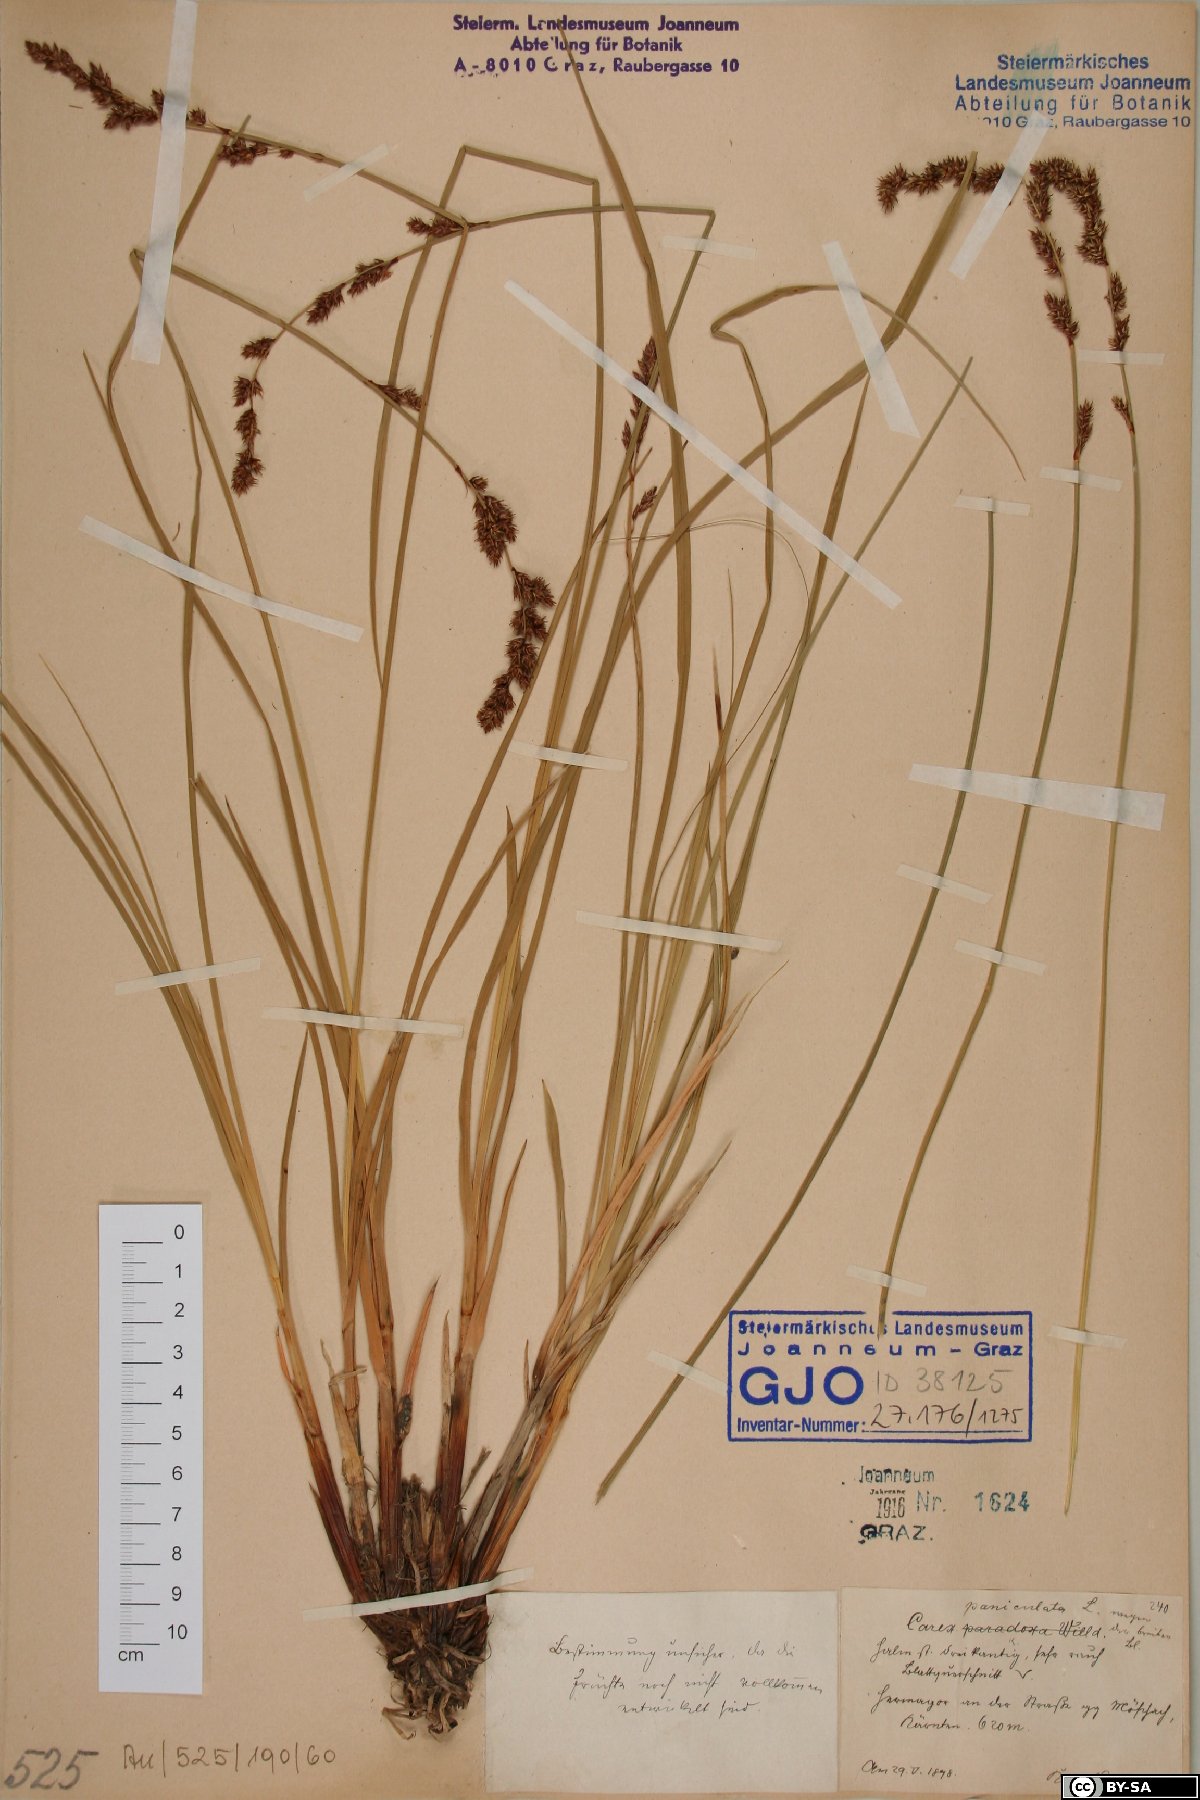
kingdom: Plantae
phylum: Tracheophyta
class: Liliopsida
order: Poales
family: Cyperaceae
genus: Carex
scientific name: Carex paniculata
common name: Greater tussock-sedge
